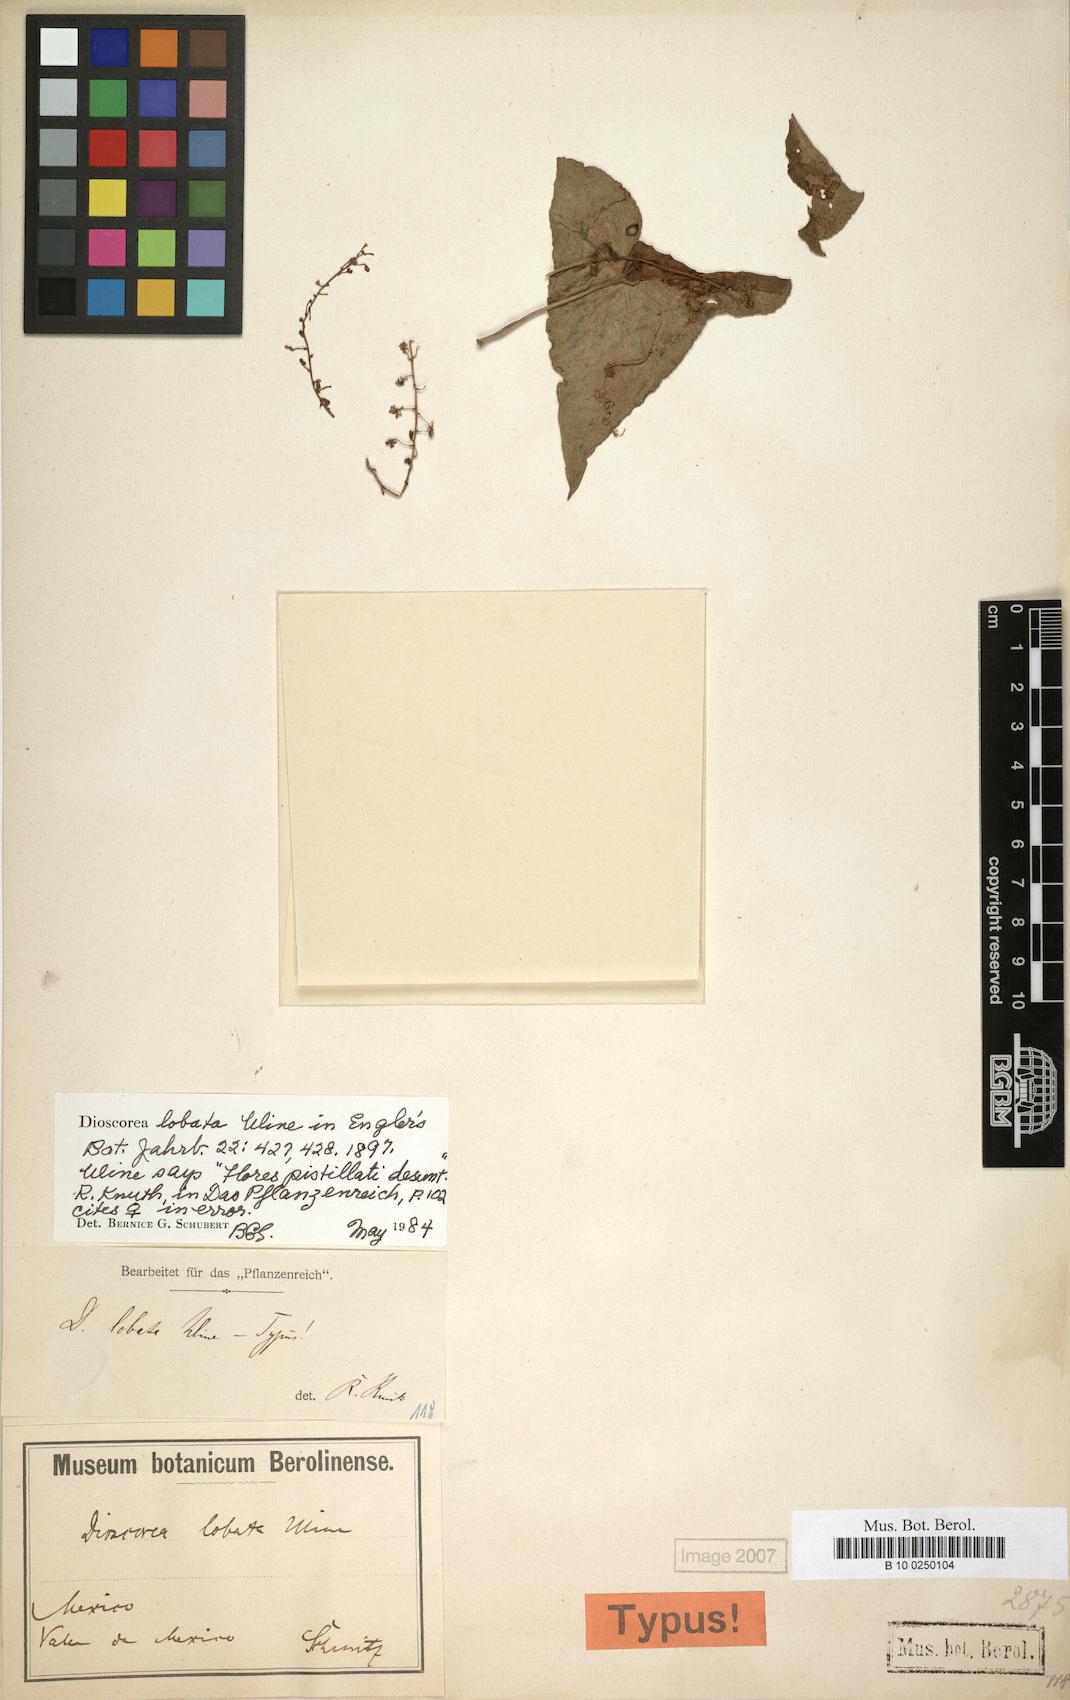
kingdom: Plantae
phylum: Tracheophyta
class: Liliopsida
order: Dioscoreales
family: Dioscoreaceae
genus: Dioscorea
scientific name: Dioscorea galeottiana
